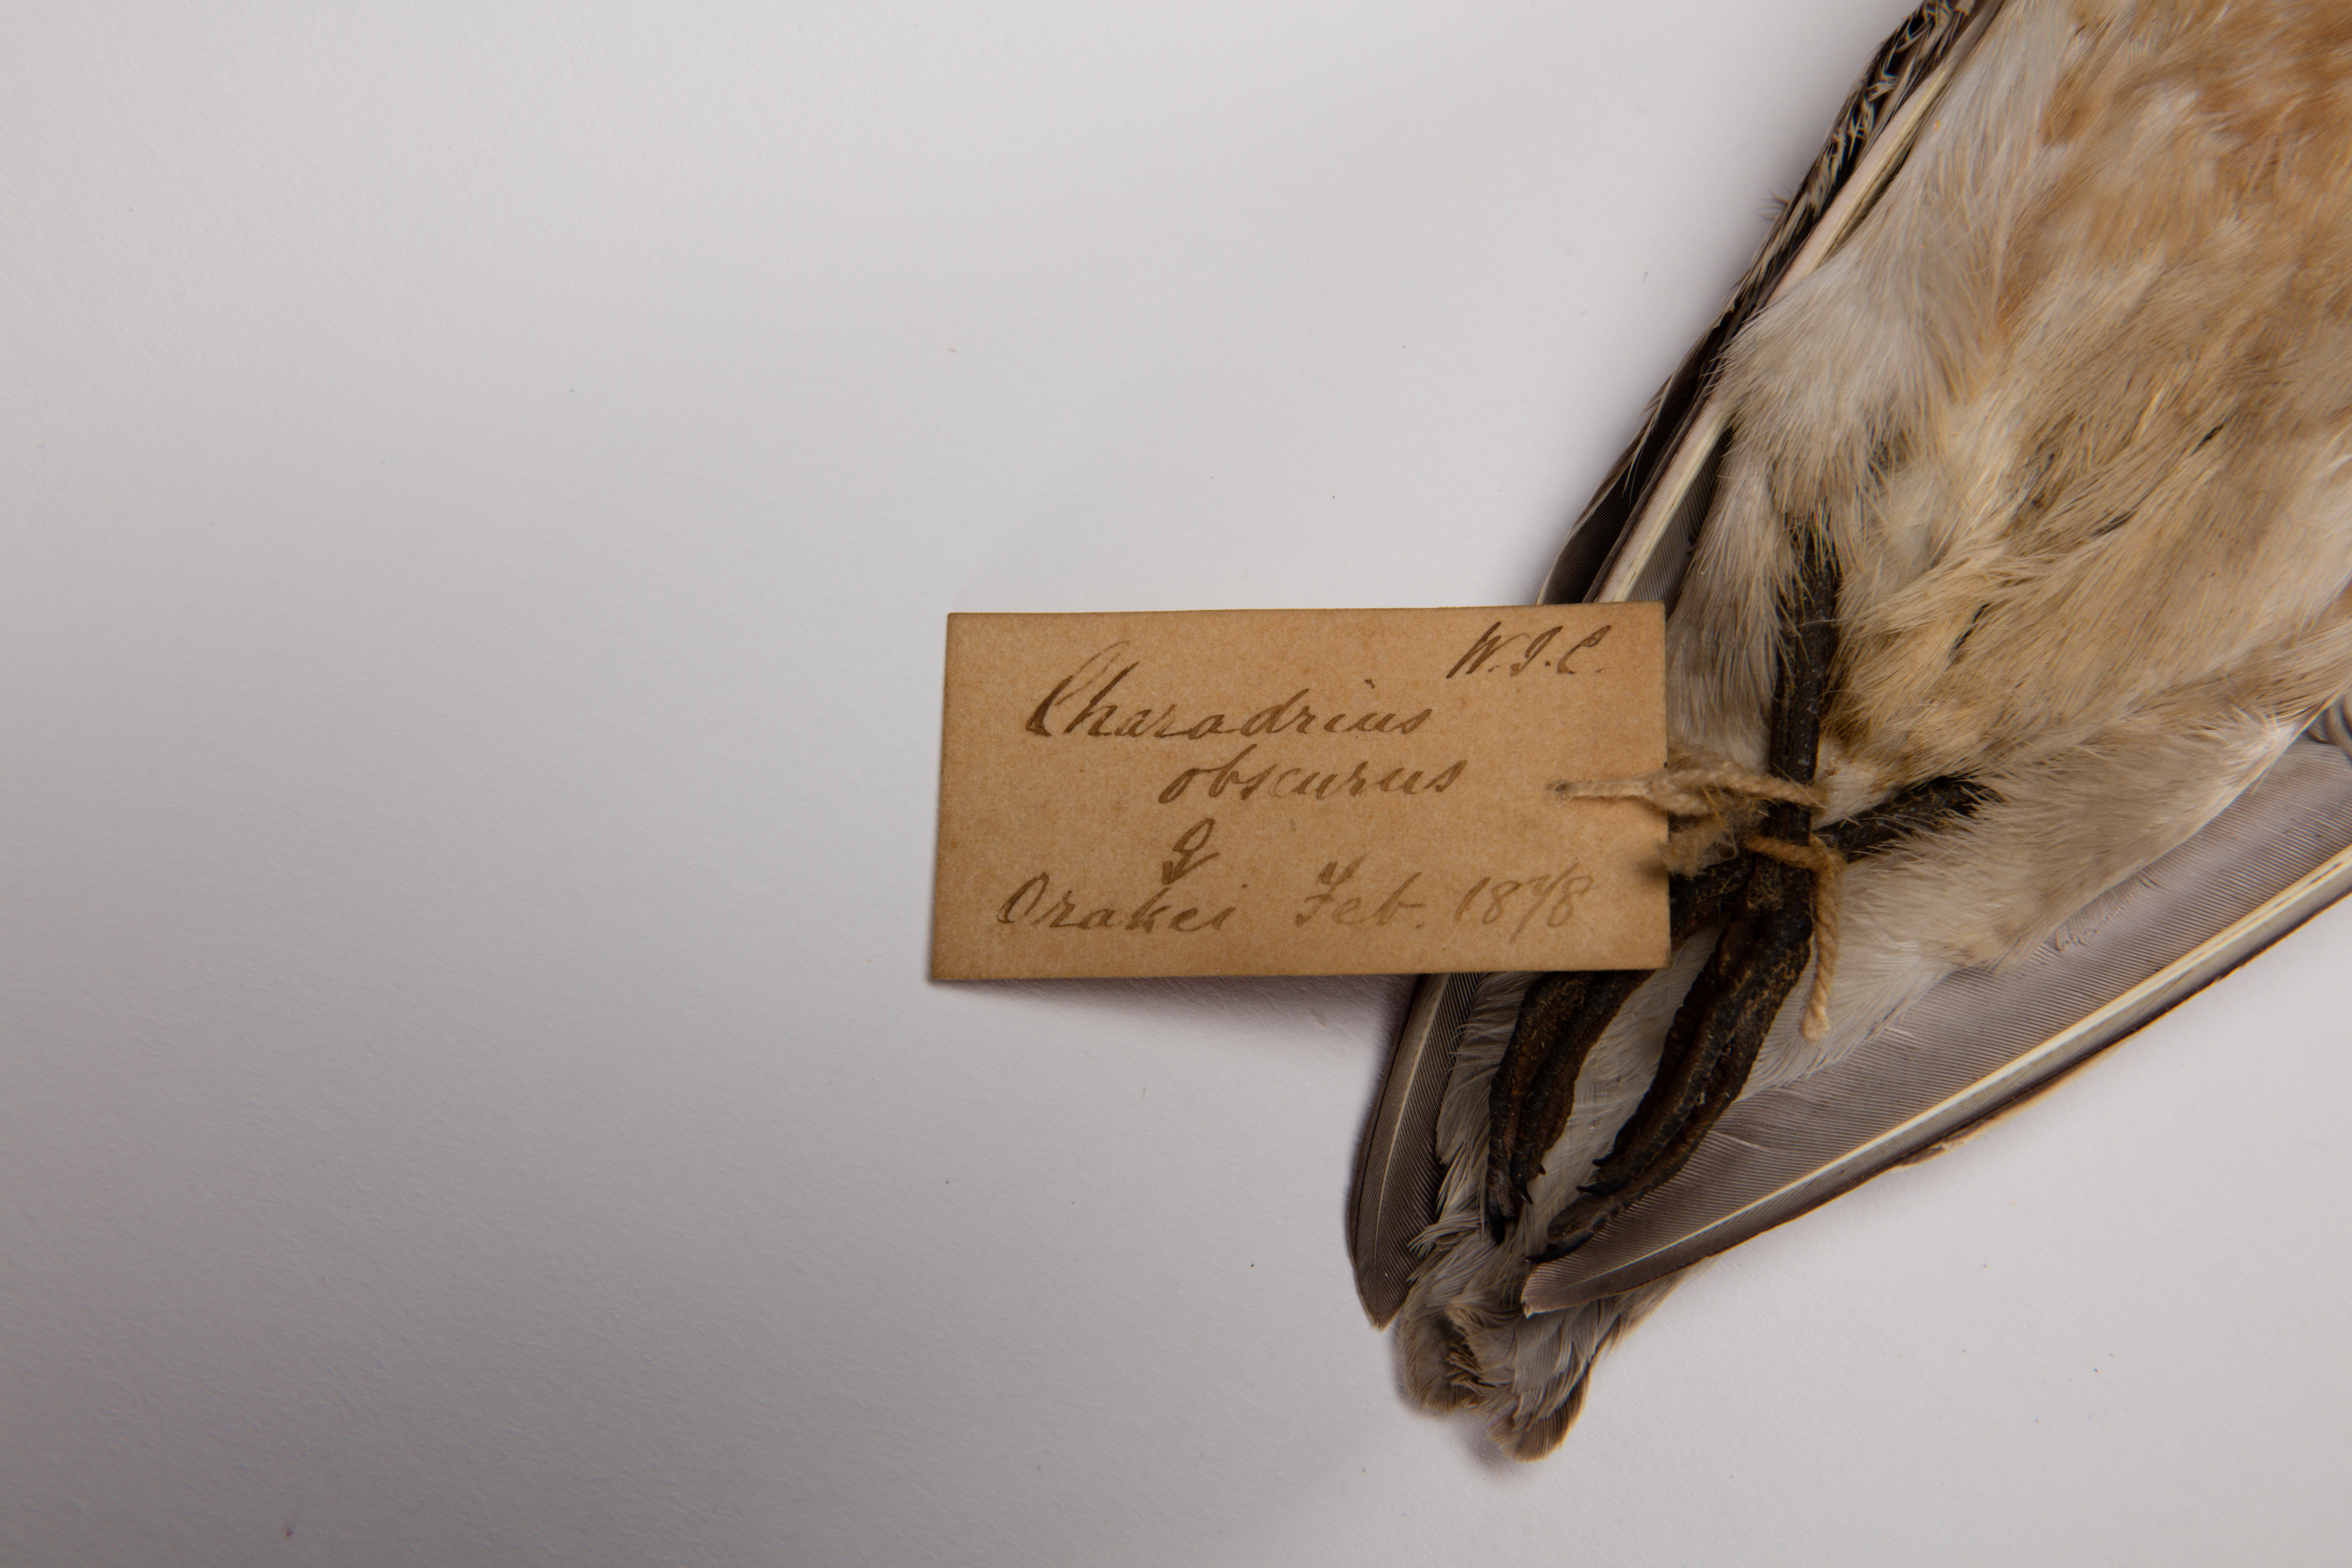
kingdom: Animalia
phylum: Chordata
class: Aves
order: Charadriiformes
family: Charadriidae
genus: Charadrius
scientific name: Charadrius obscurus
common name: New zealand plover
